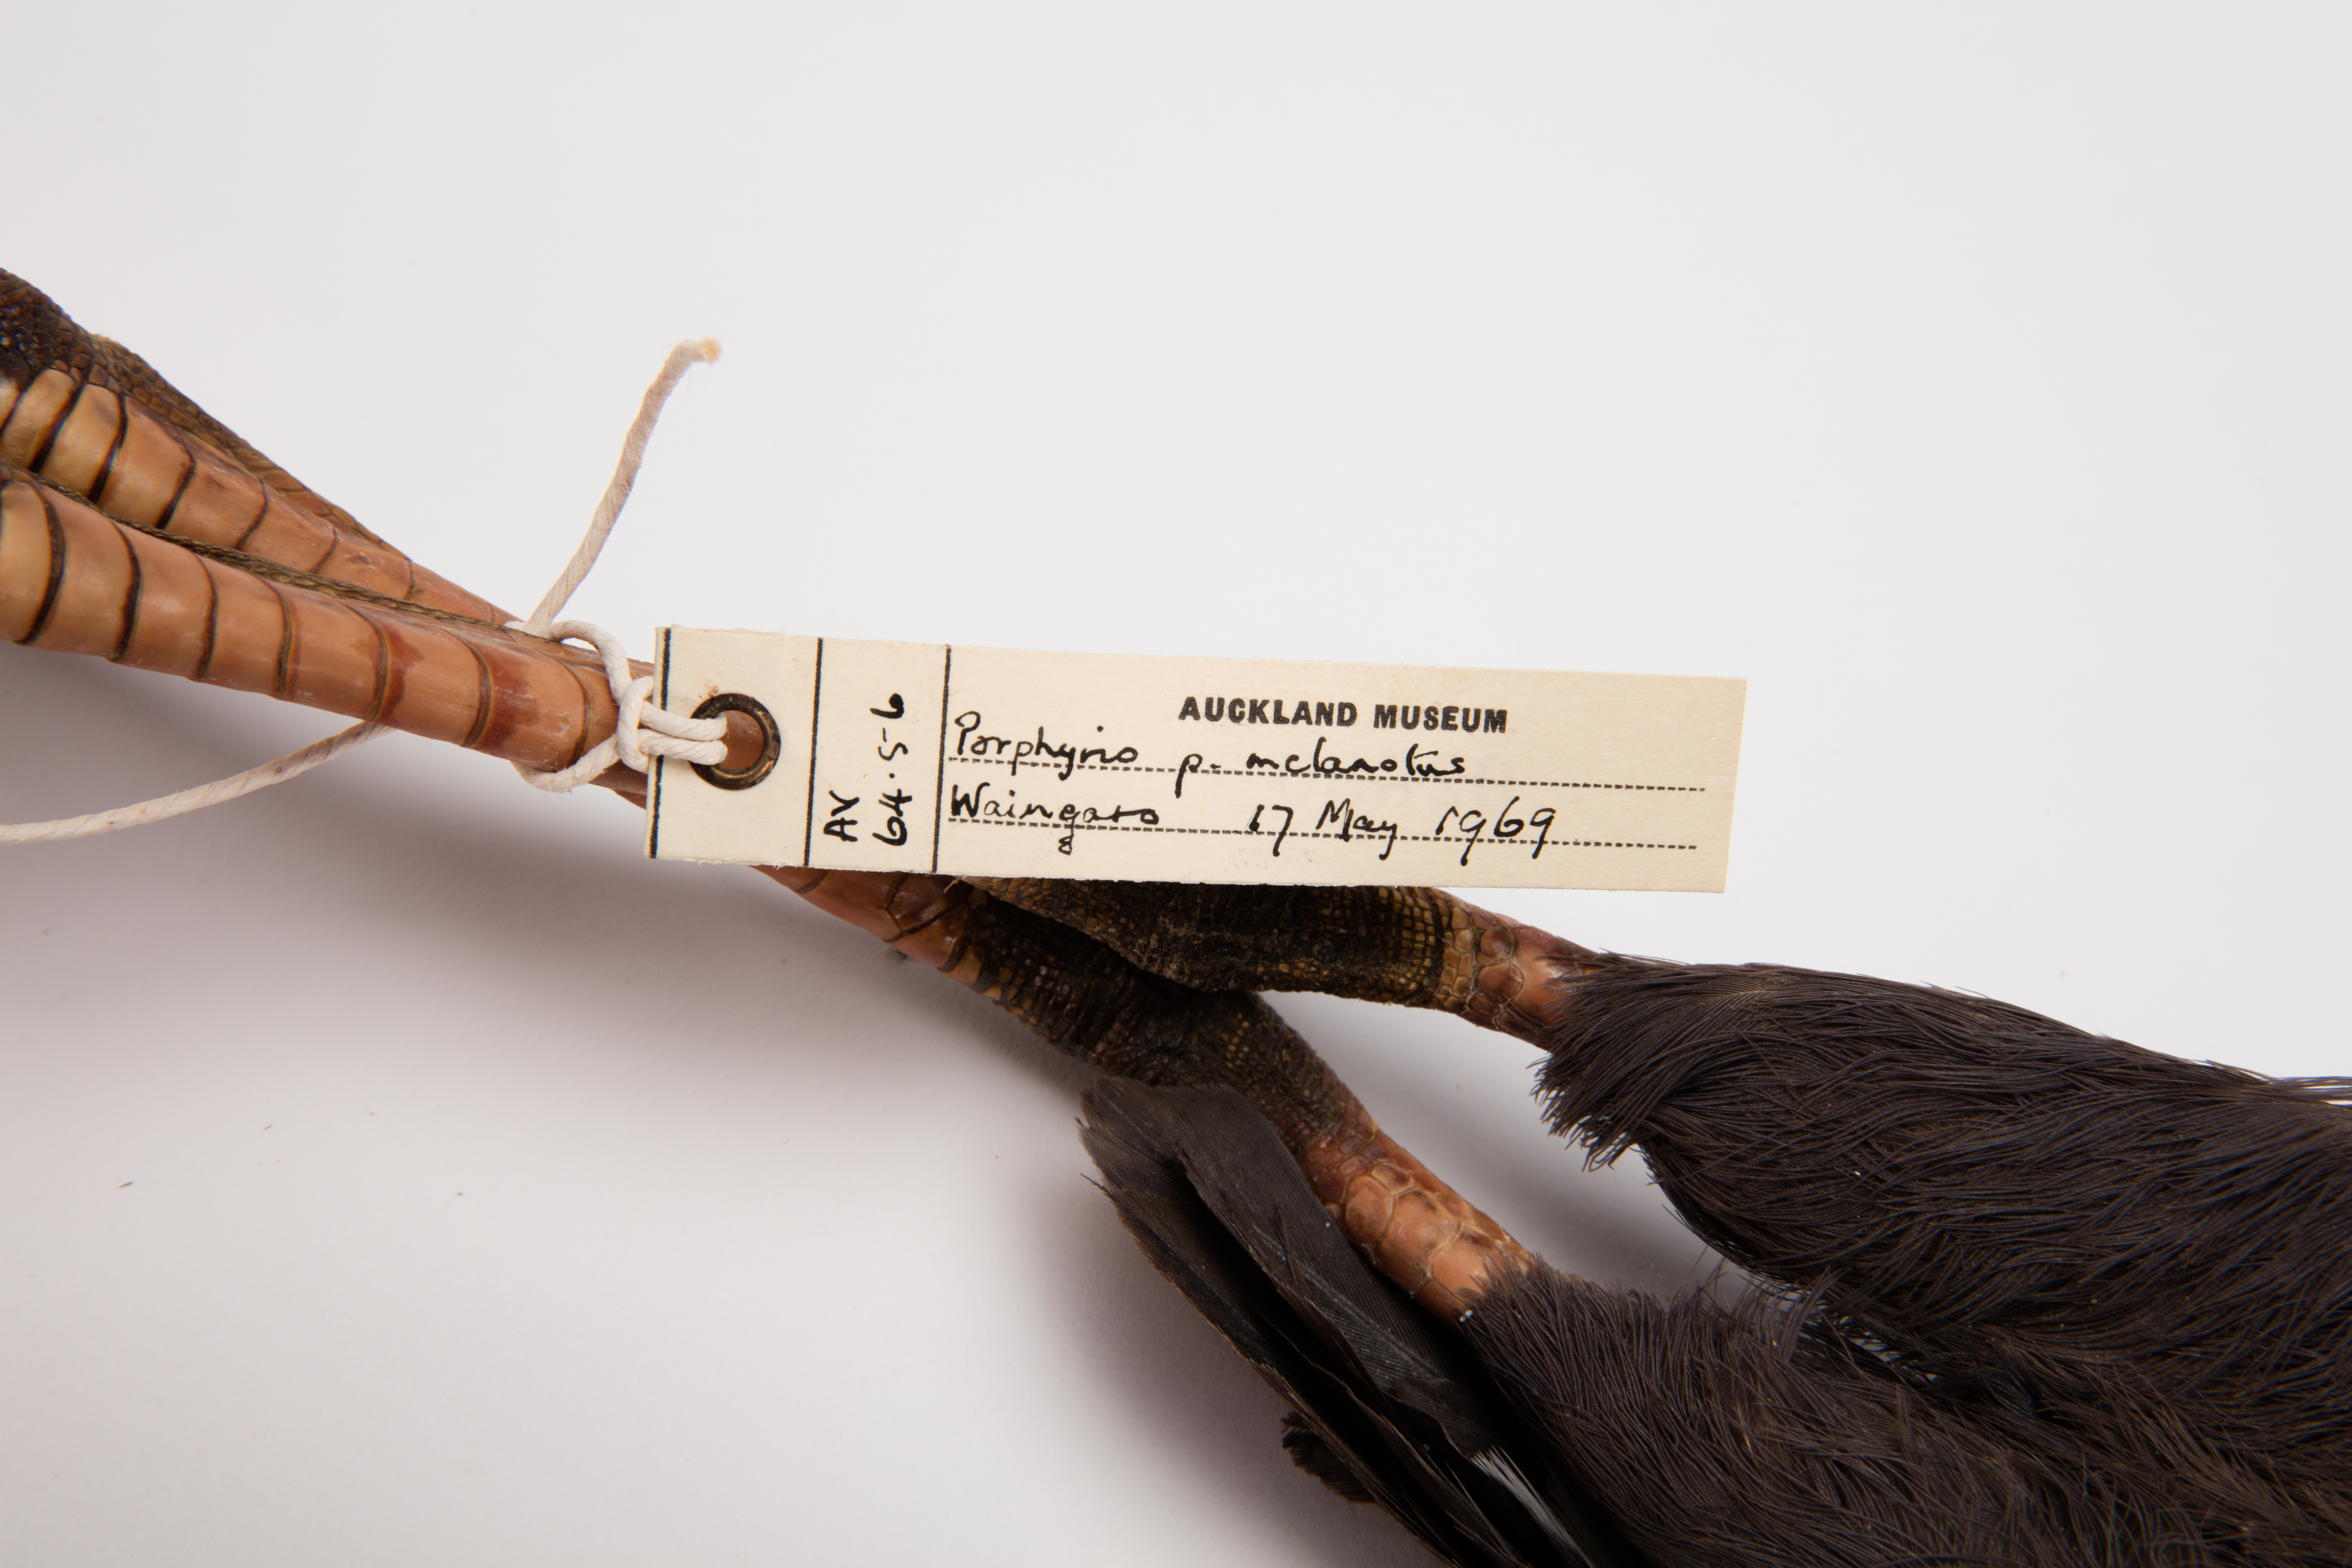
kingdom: Animalia
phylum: Chordata
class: Aves
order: Gruiformes
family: Rallidae
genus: Porphyrio
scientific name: Porphyrio melanotus
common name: Australasian swamphen
